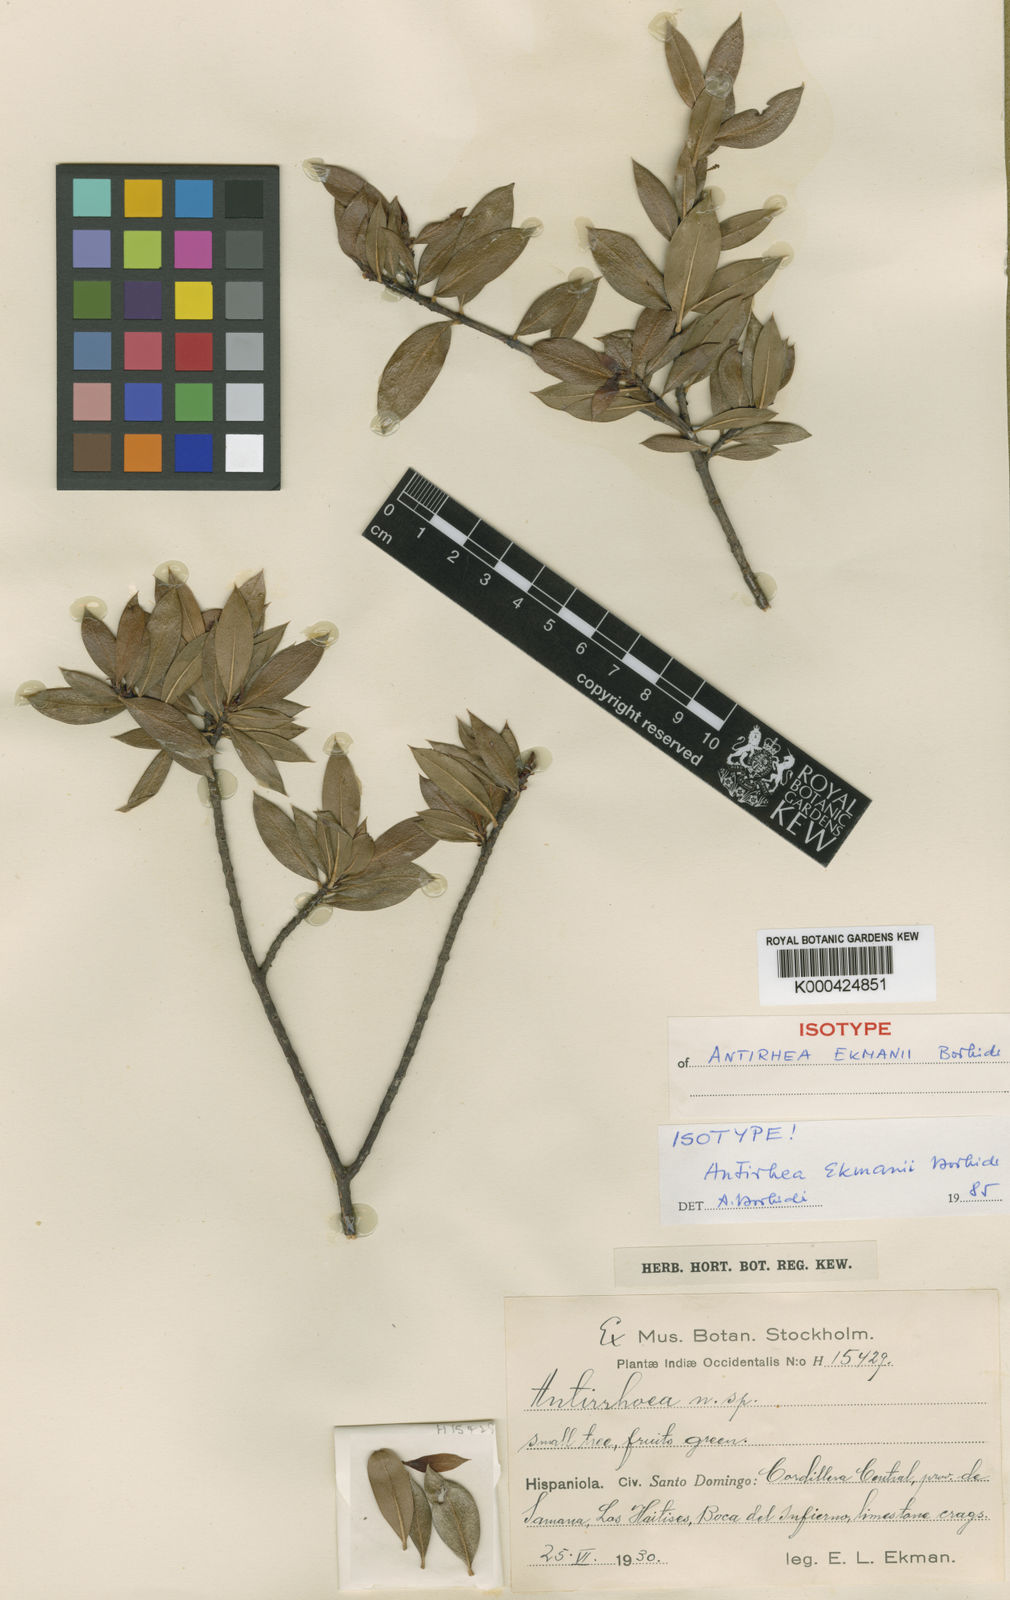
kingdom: Plantae
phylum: Tracheophyta
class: Magnoliopsida
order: Gentianales
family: Rubiaceae
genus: Stenostomum
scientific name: Stenostomum granulatum
